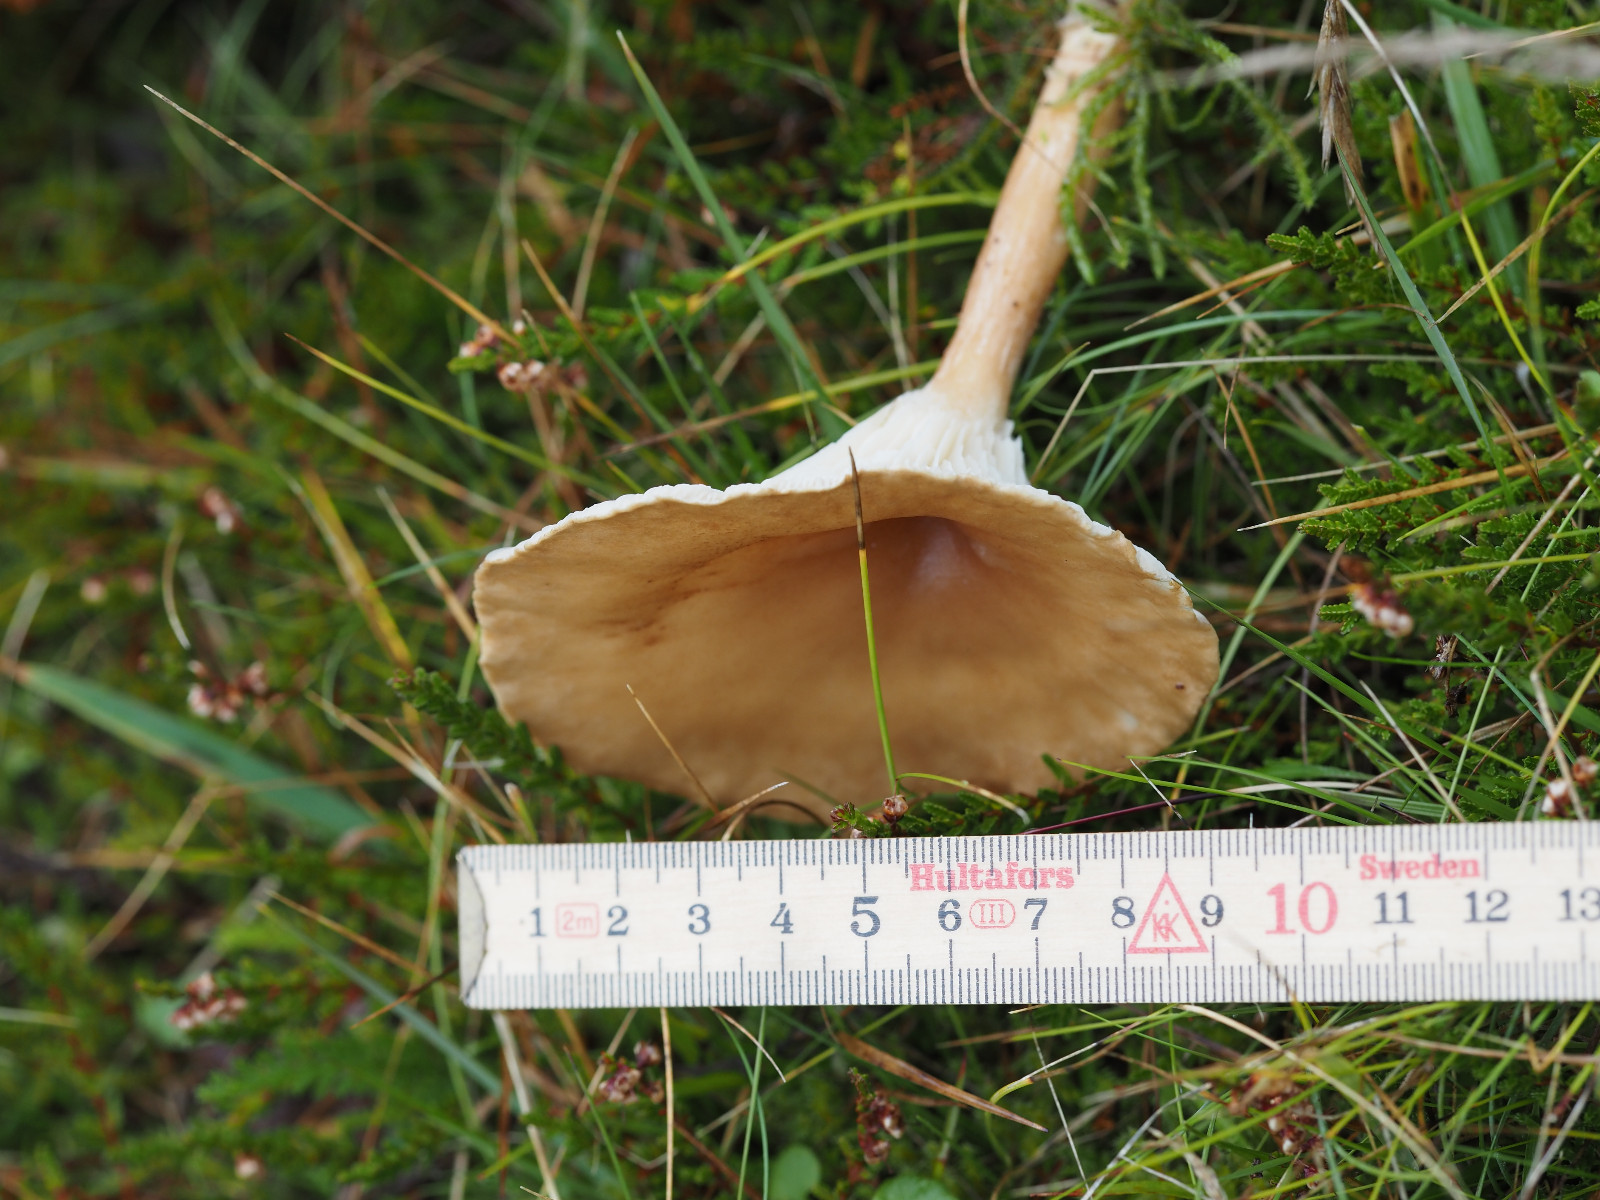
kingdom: Fungi
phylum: Basidiomycota
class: Agaricomycetes
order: Agaricales
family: Tricholomataceae
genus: Infundibulicybe
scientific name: Infundibulicybe gibba
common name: almindelig tragthat
